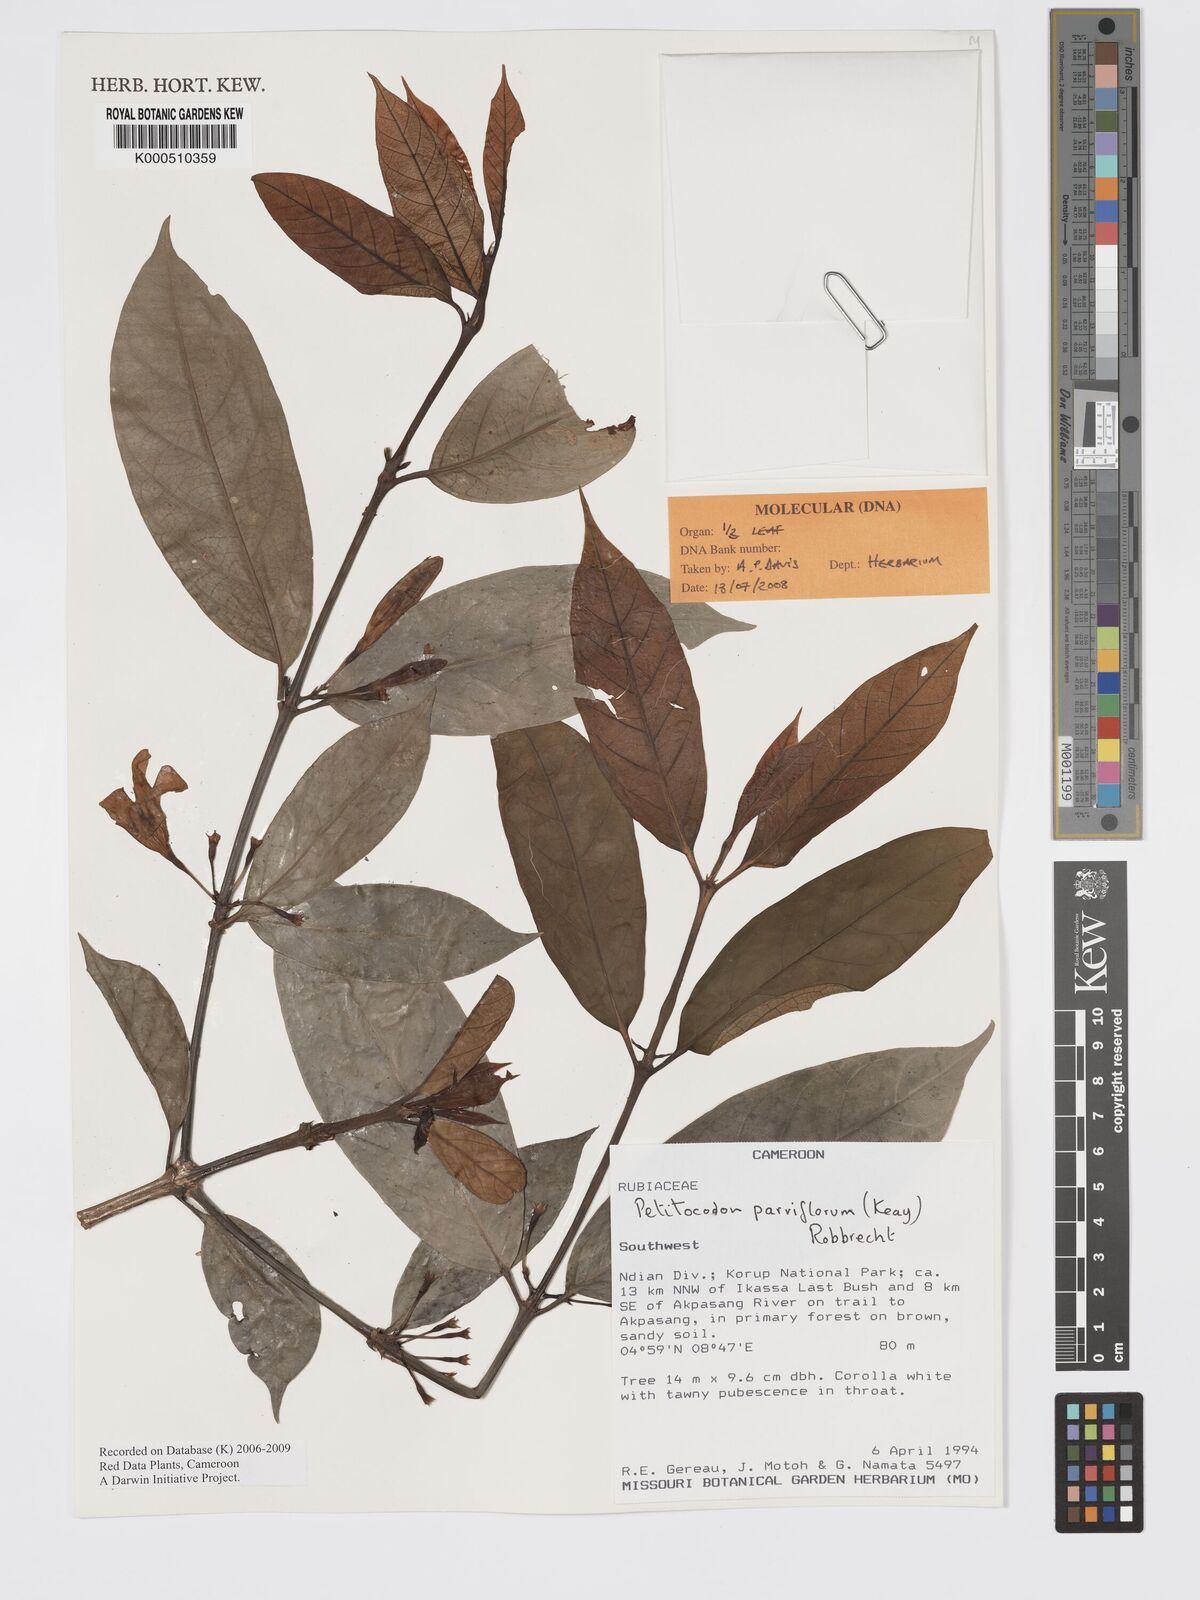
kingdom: Plantae
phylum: Tracheophyta
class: Magnoliopsida
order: Gentianales
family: Rubiaceae
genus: Petitiocodon
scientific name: Petitiocodon parviflorum
